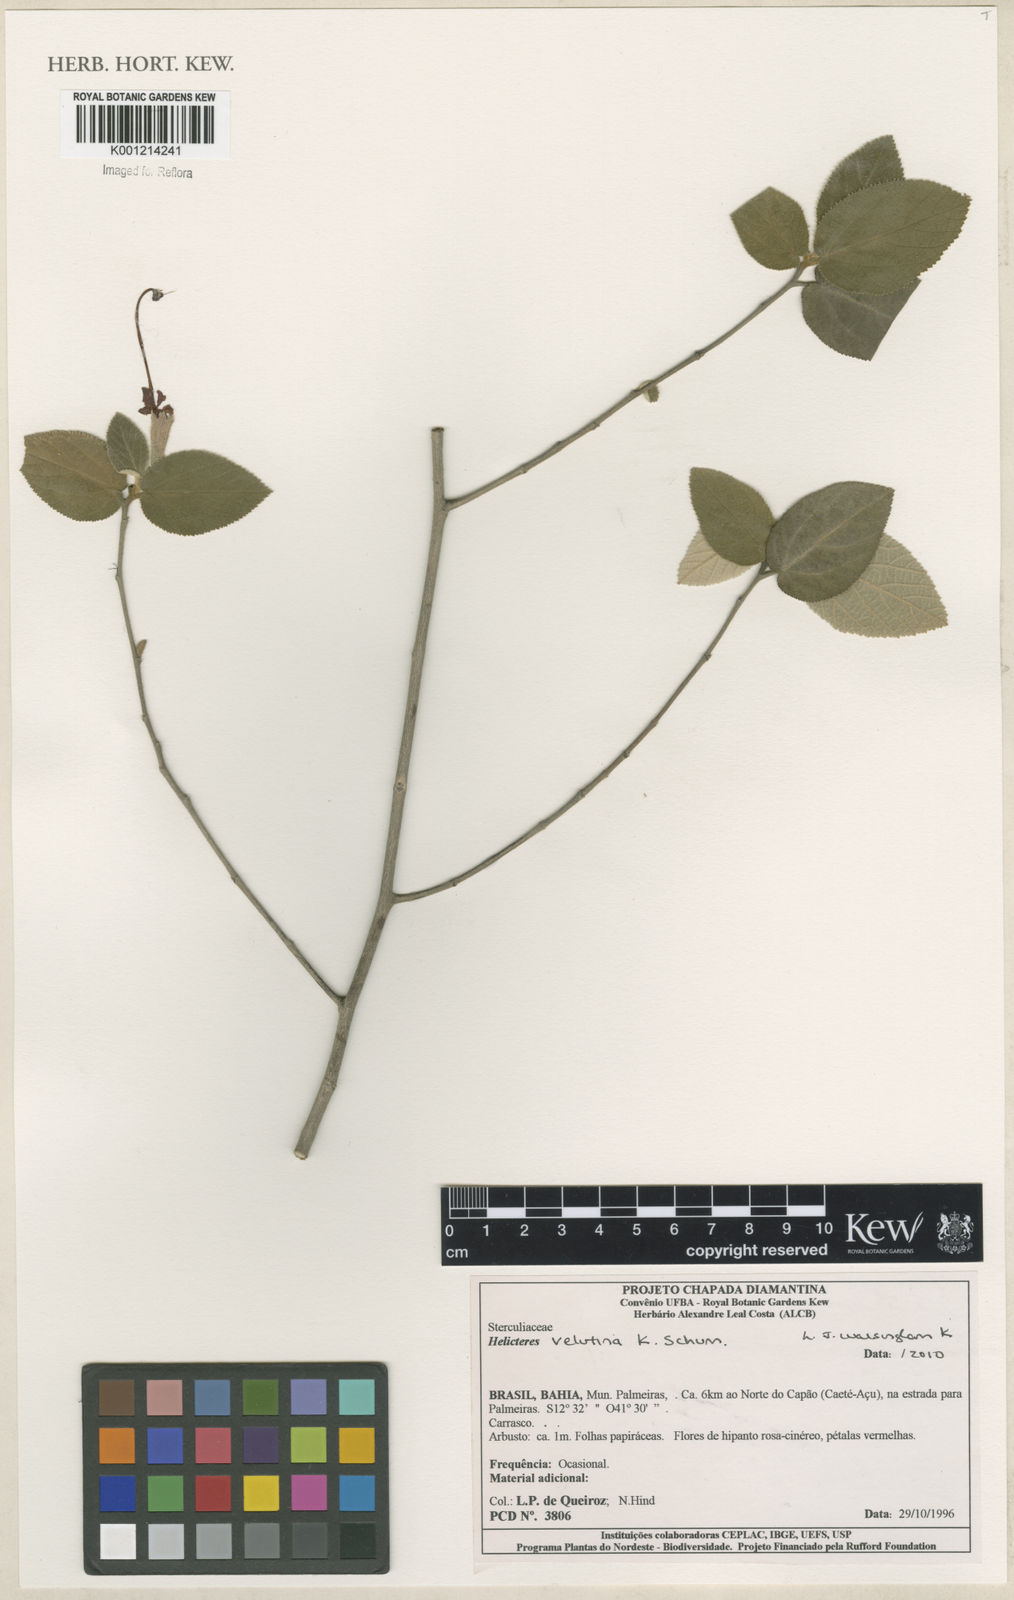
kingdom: Plantae
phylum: Tracheophyta
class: Magnoliopsida
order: Malvales
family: Malvaceae
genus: Helicteres
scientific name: Helicteres velutina
